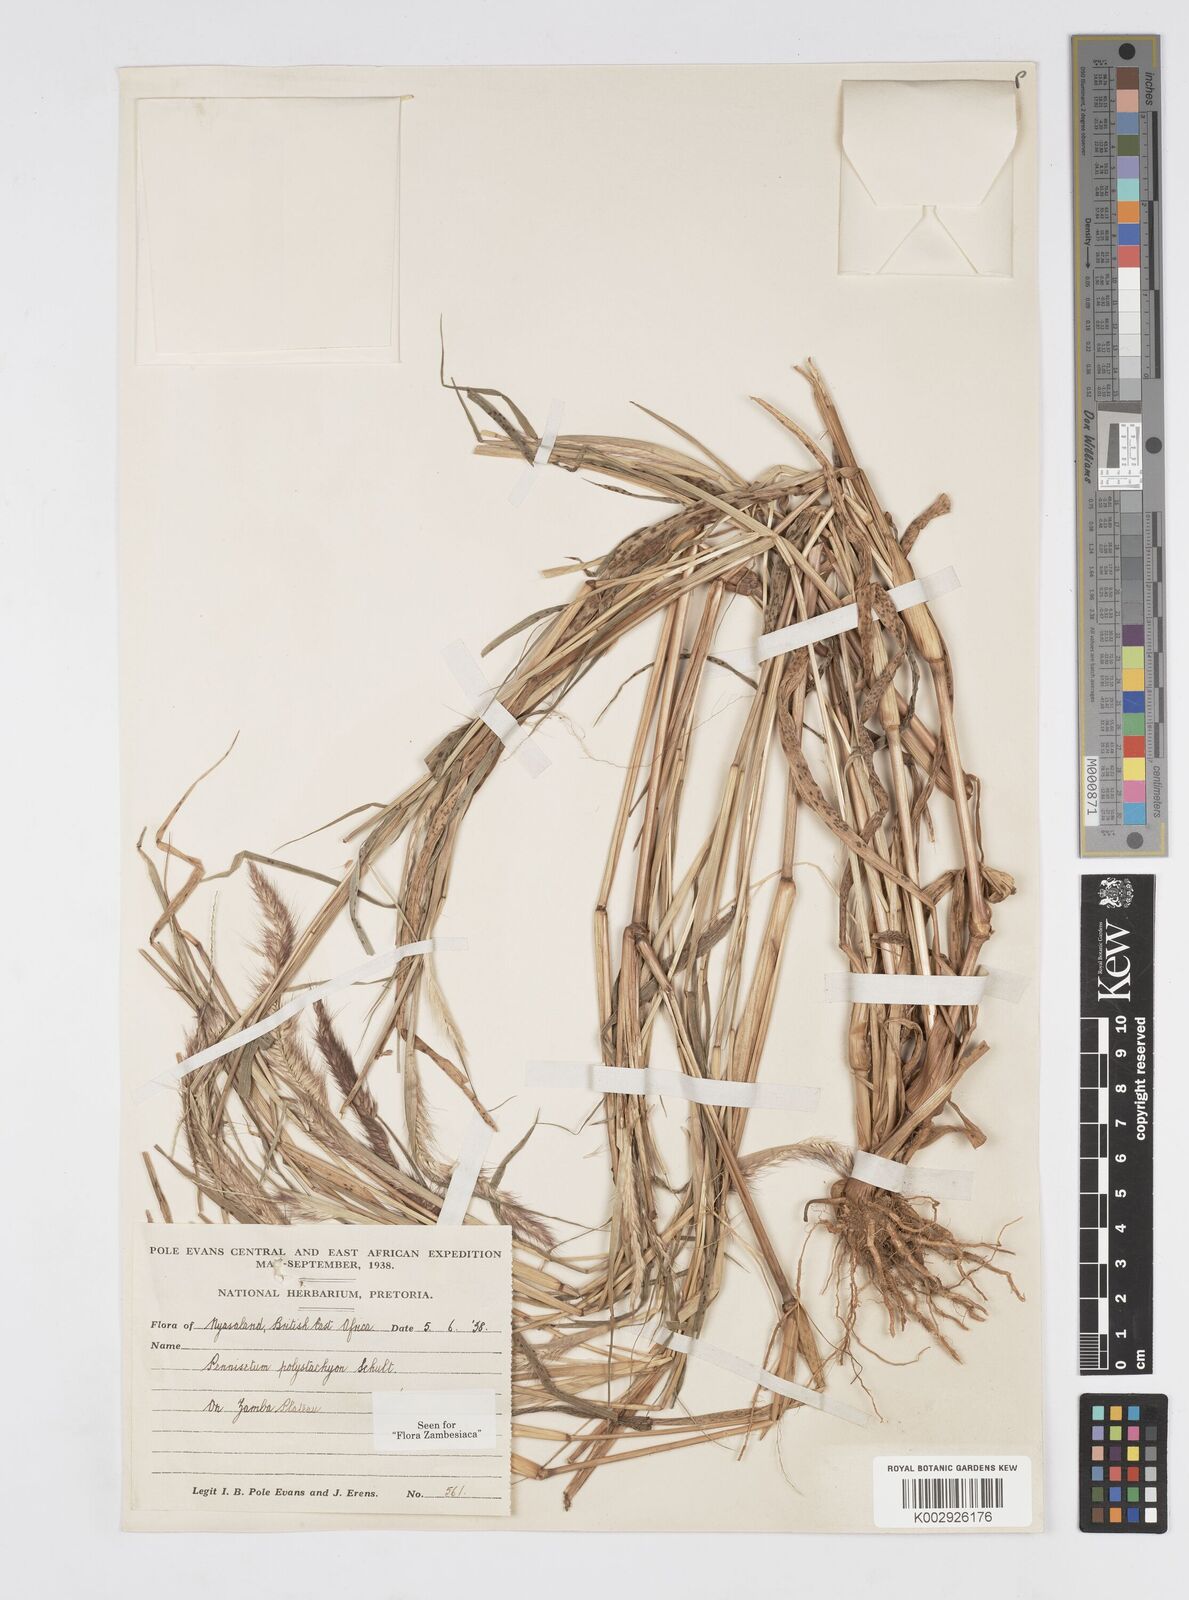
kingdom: Plantae
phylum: Tracheophyta
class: Liliopsida
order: Poales
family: Poaceae
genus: Setaria
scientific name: Setaria parviflora
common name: Knotroot bristle-grass
